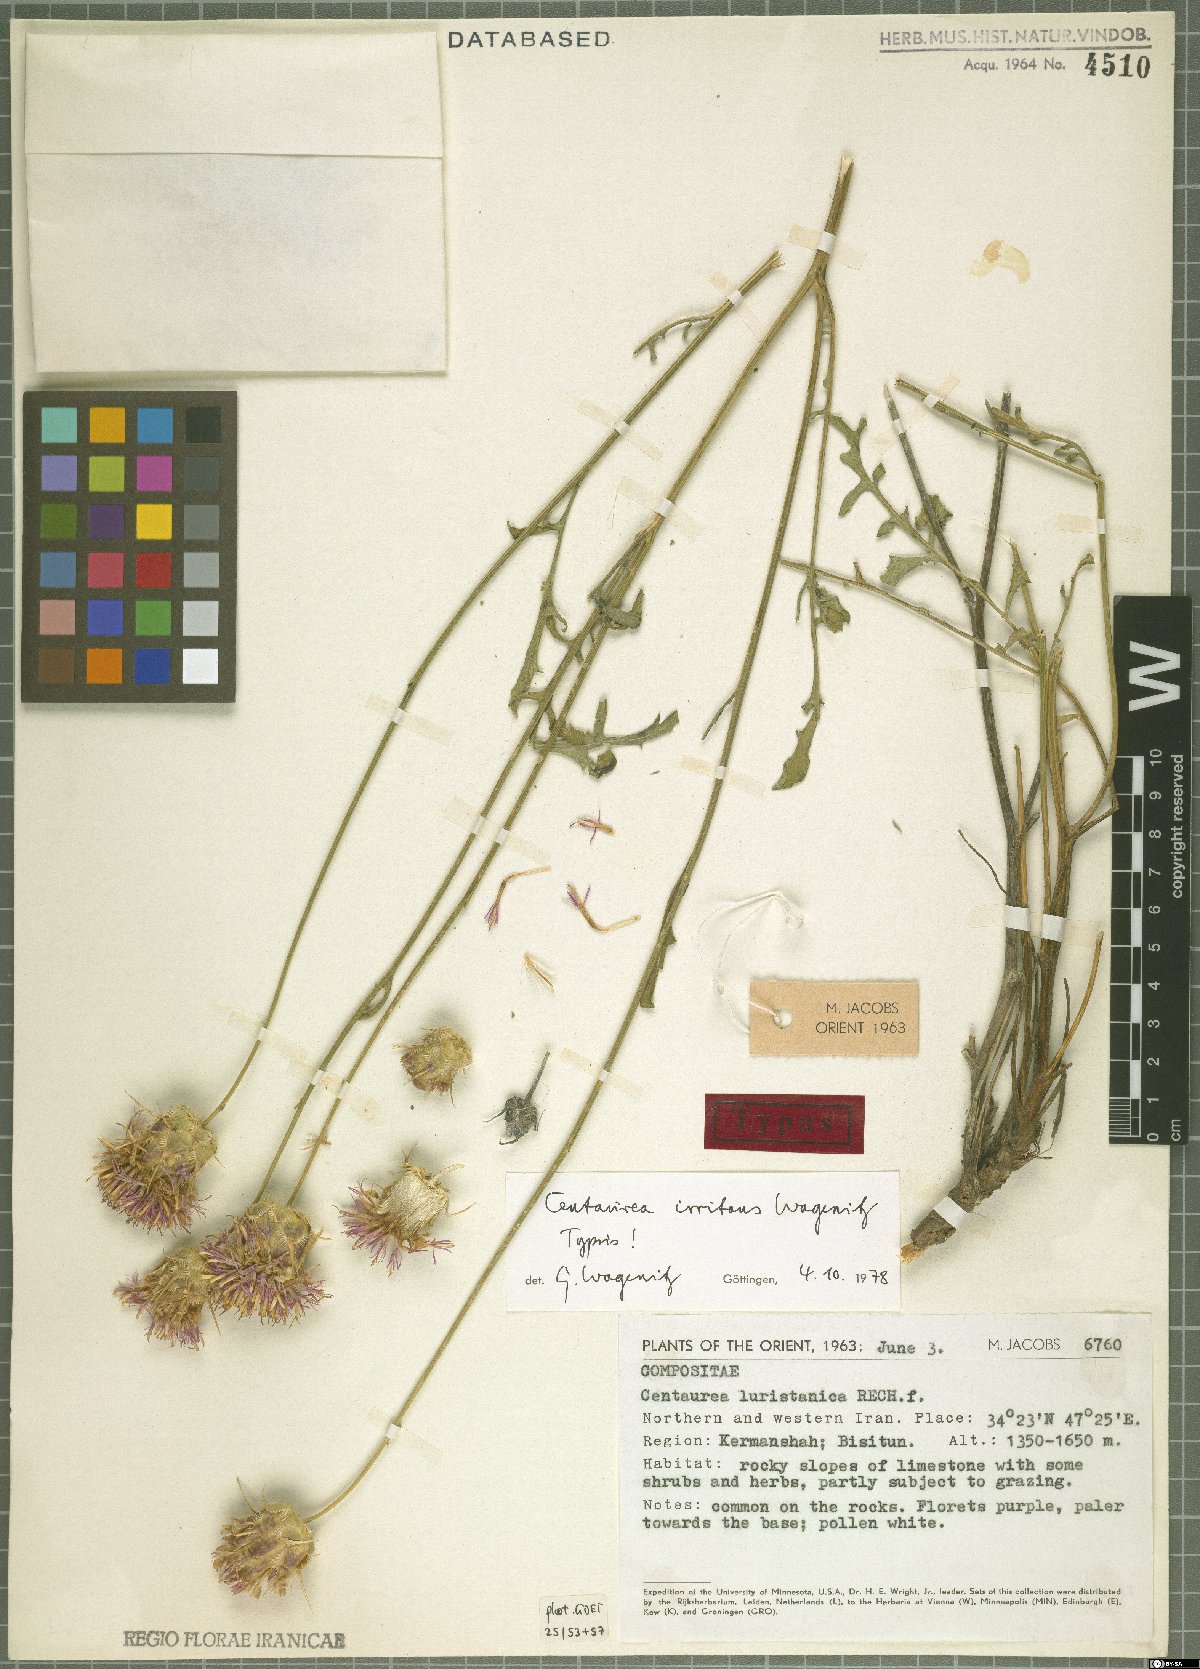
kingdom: Plantae
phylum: Tracheophyta
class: Magnoliopsida
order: Asterales
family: Asteraceae
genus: Centaurea
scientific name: Centaurea irritans
